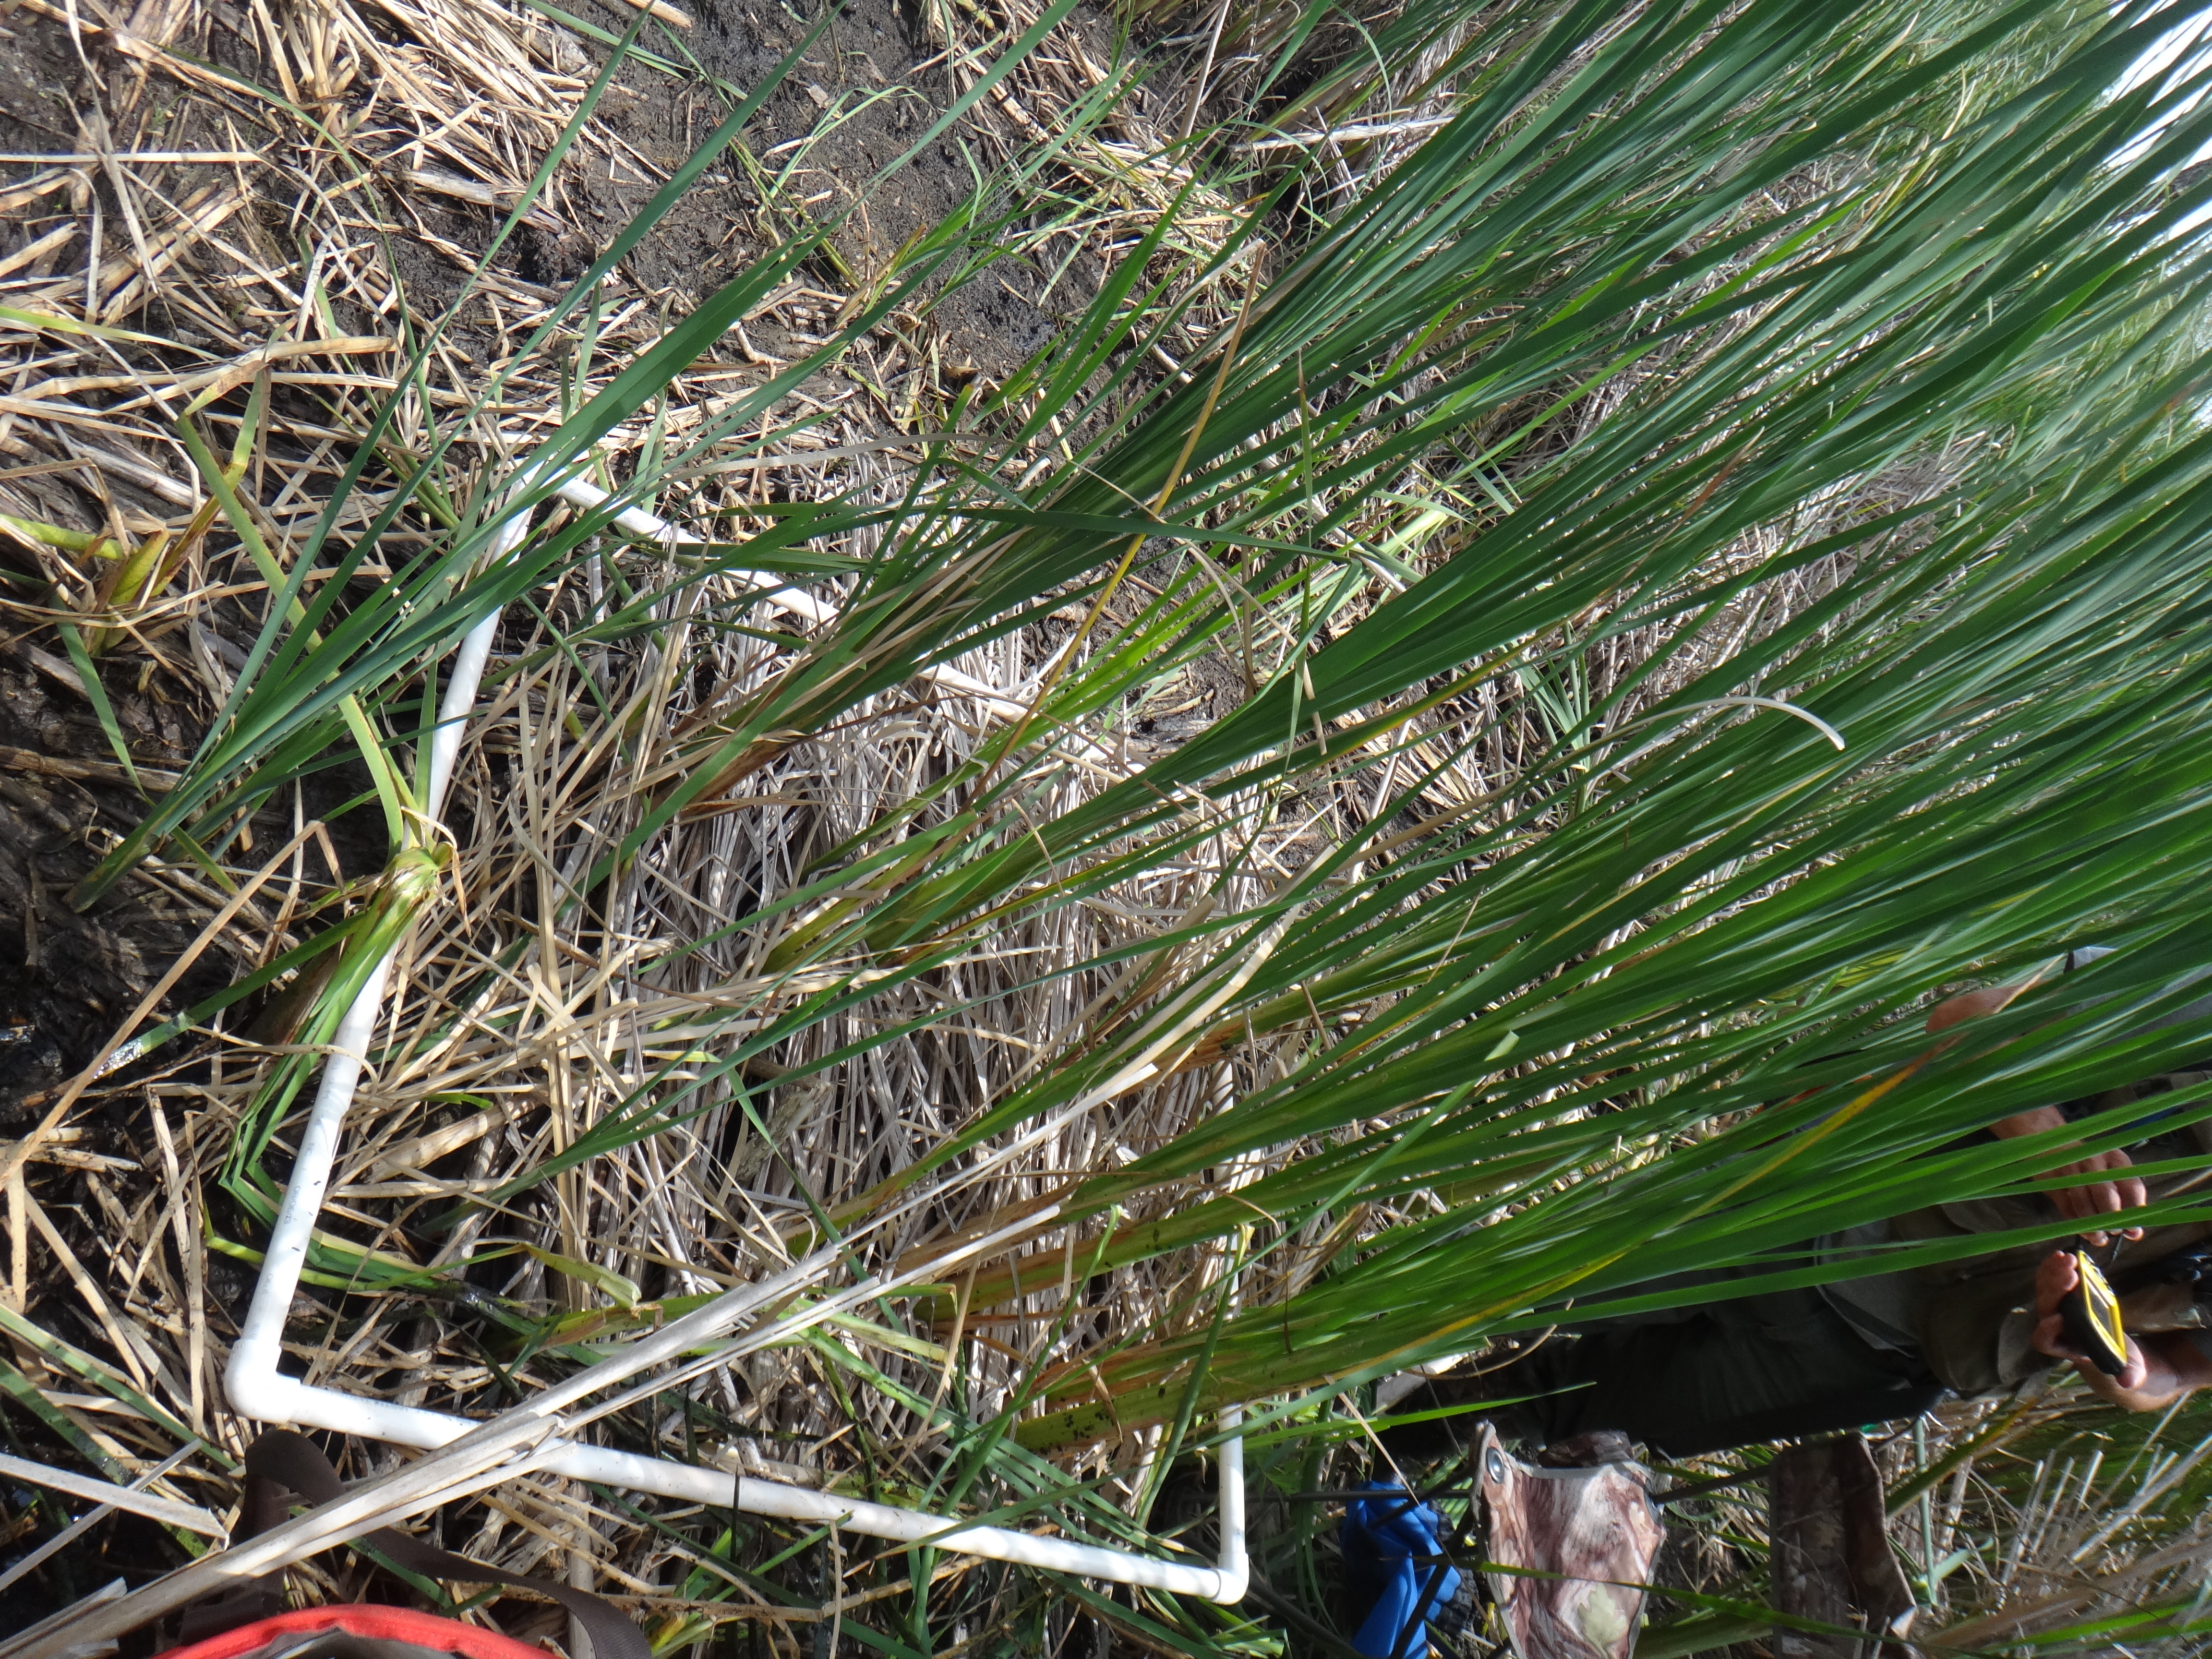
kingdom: Plantae
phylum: Tracheophyta
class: Liliopsida
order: Poales
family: Typhaceae
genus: Typha
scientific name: Typha latifolia
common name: Broadleaf cattail
